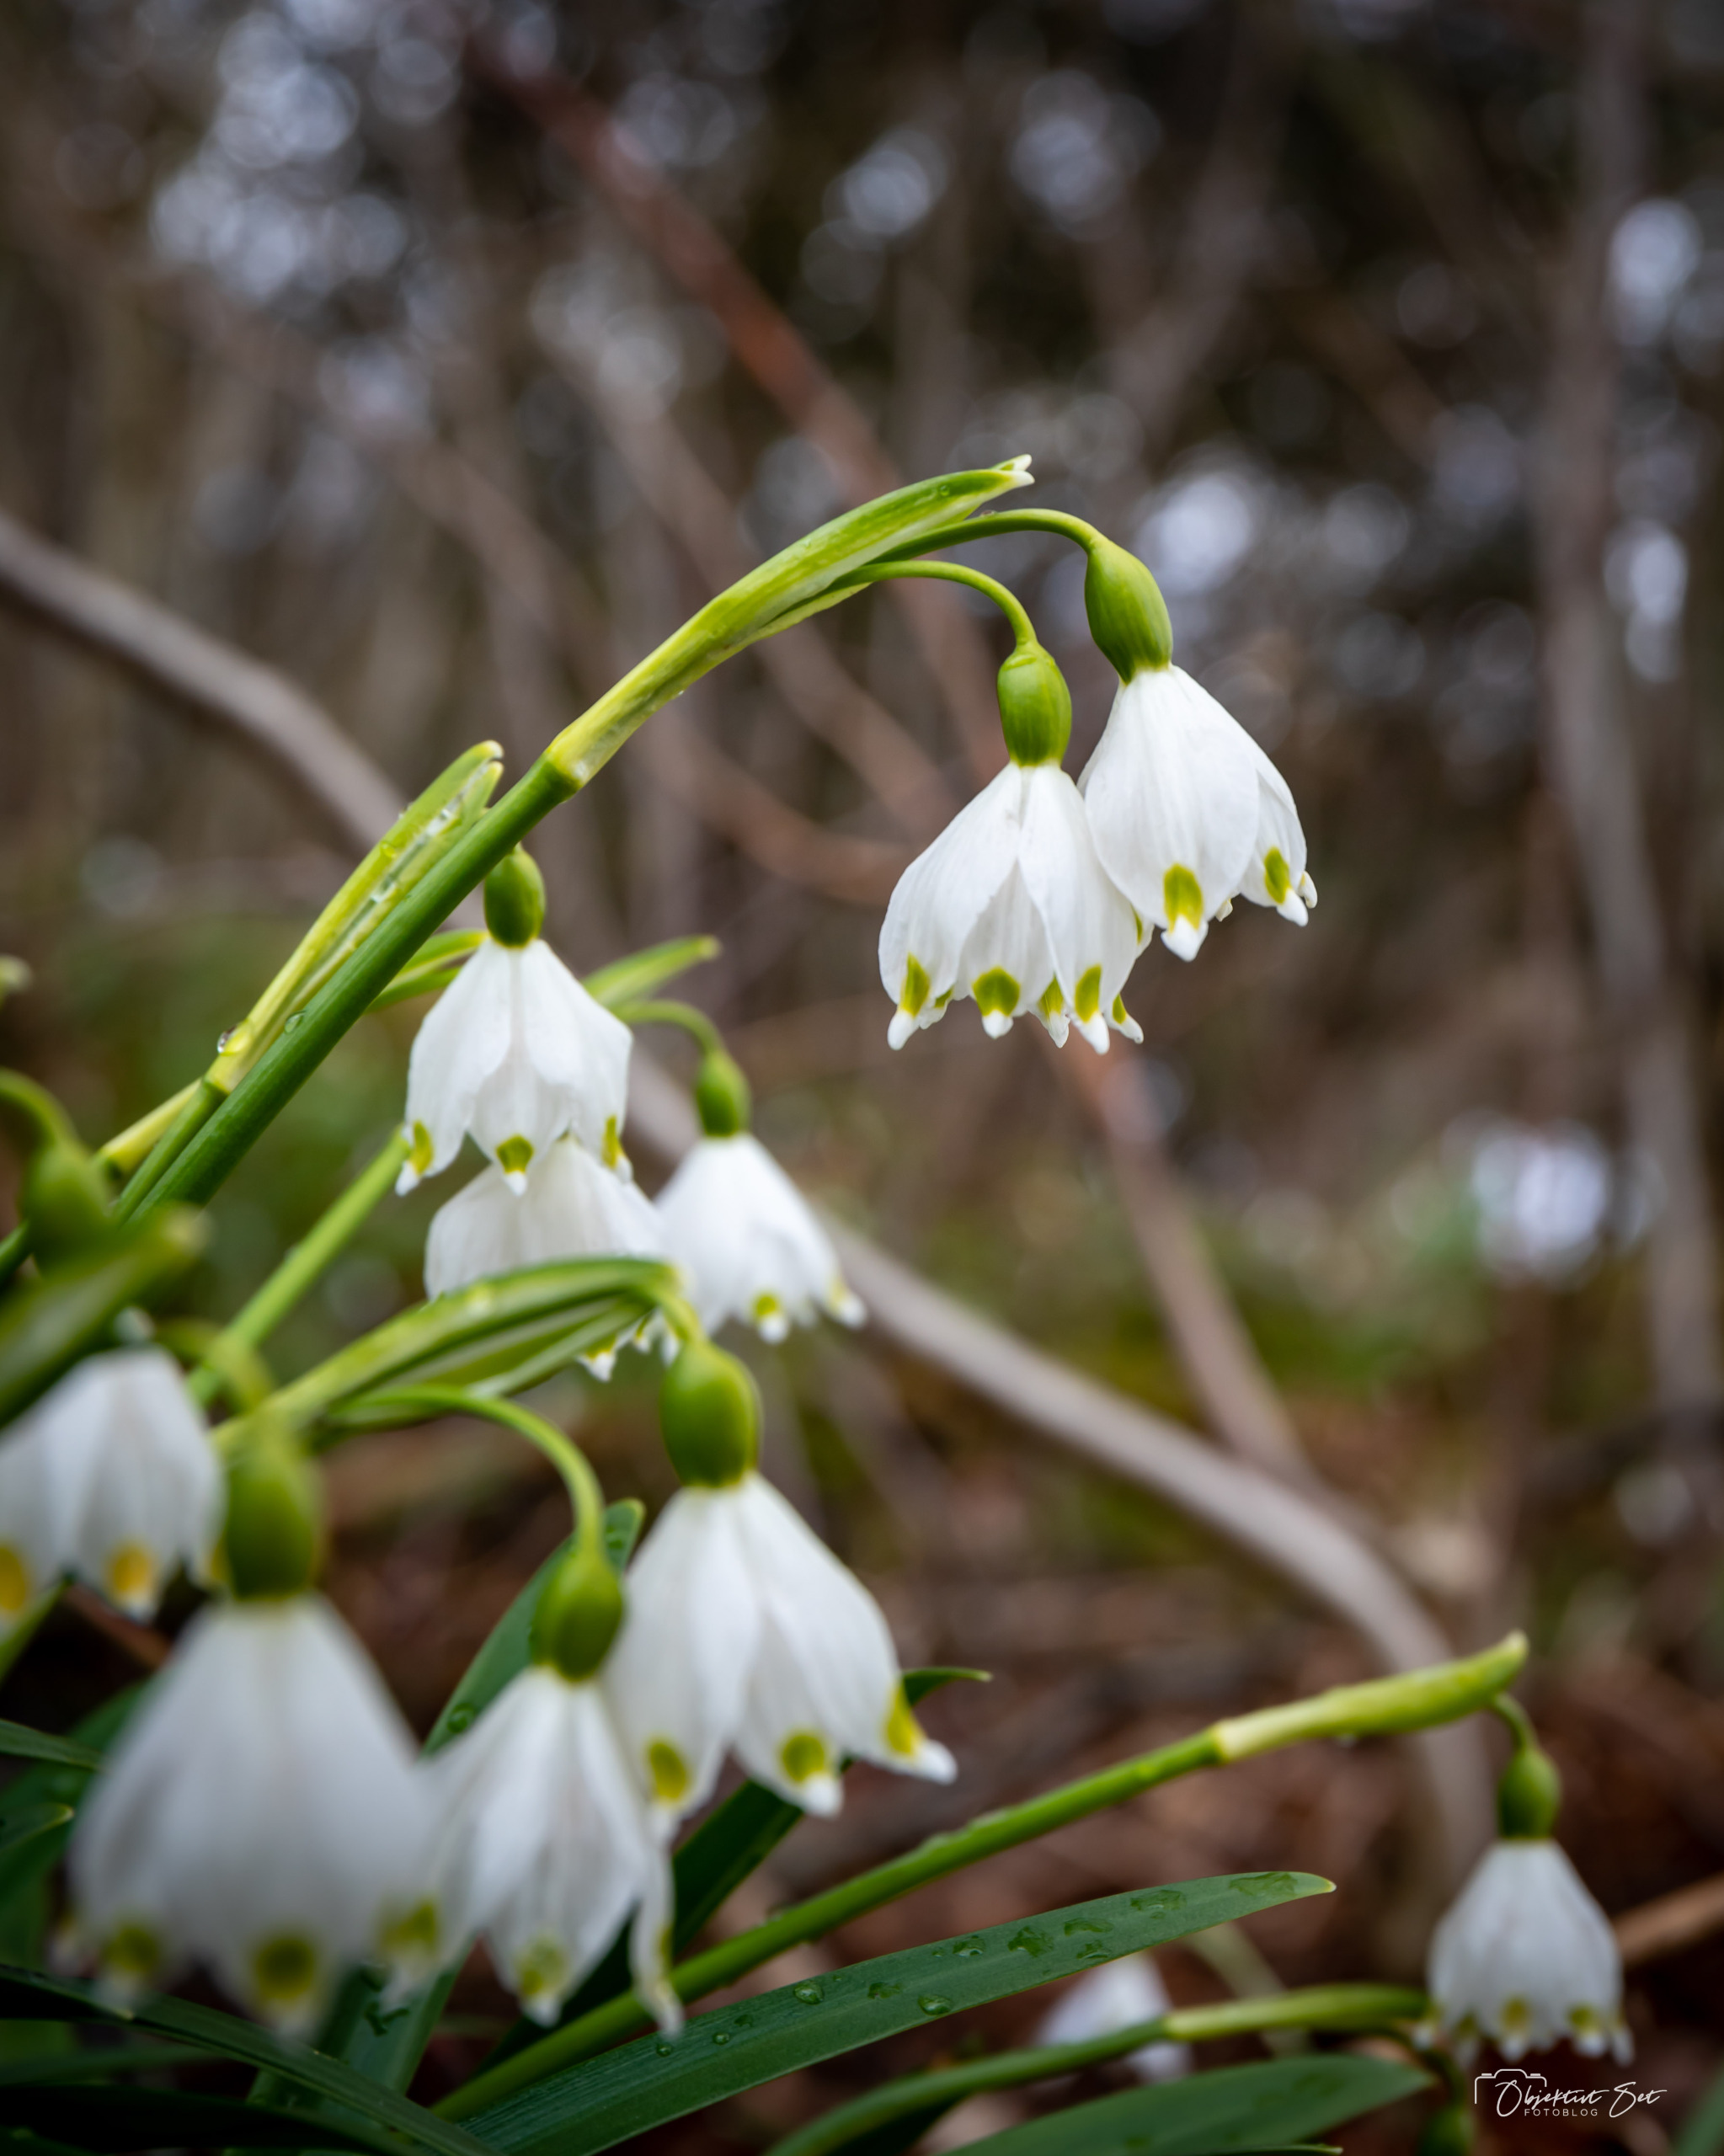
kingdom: Plantae
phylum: Tracheophyta
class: Liliopsida
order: Asparagales
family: Amaryllidaceae
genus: Leucojum
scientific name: Leucojum vernum
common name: Dorthealilje
